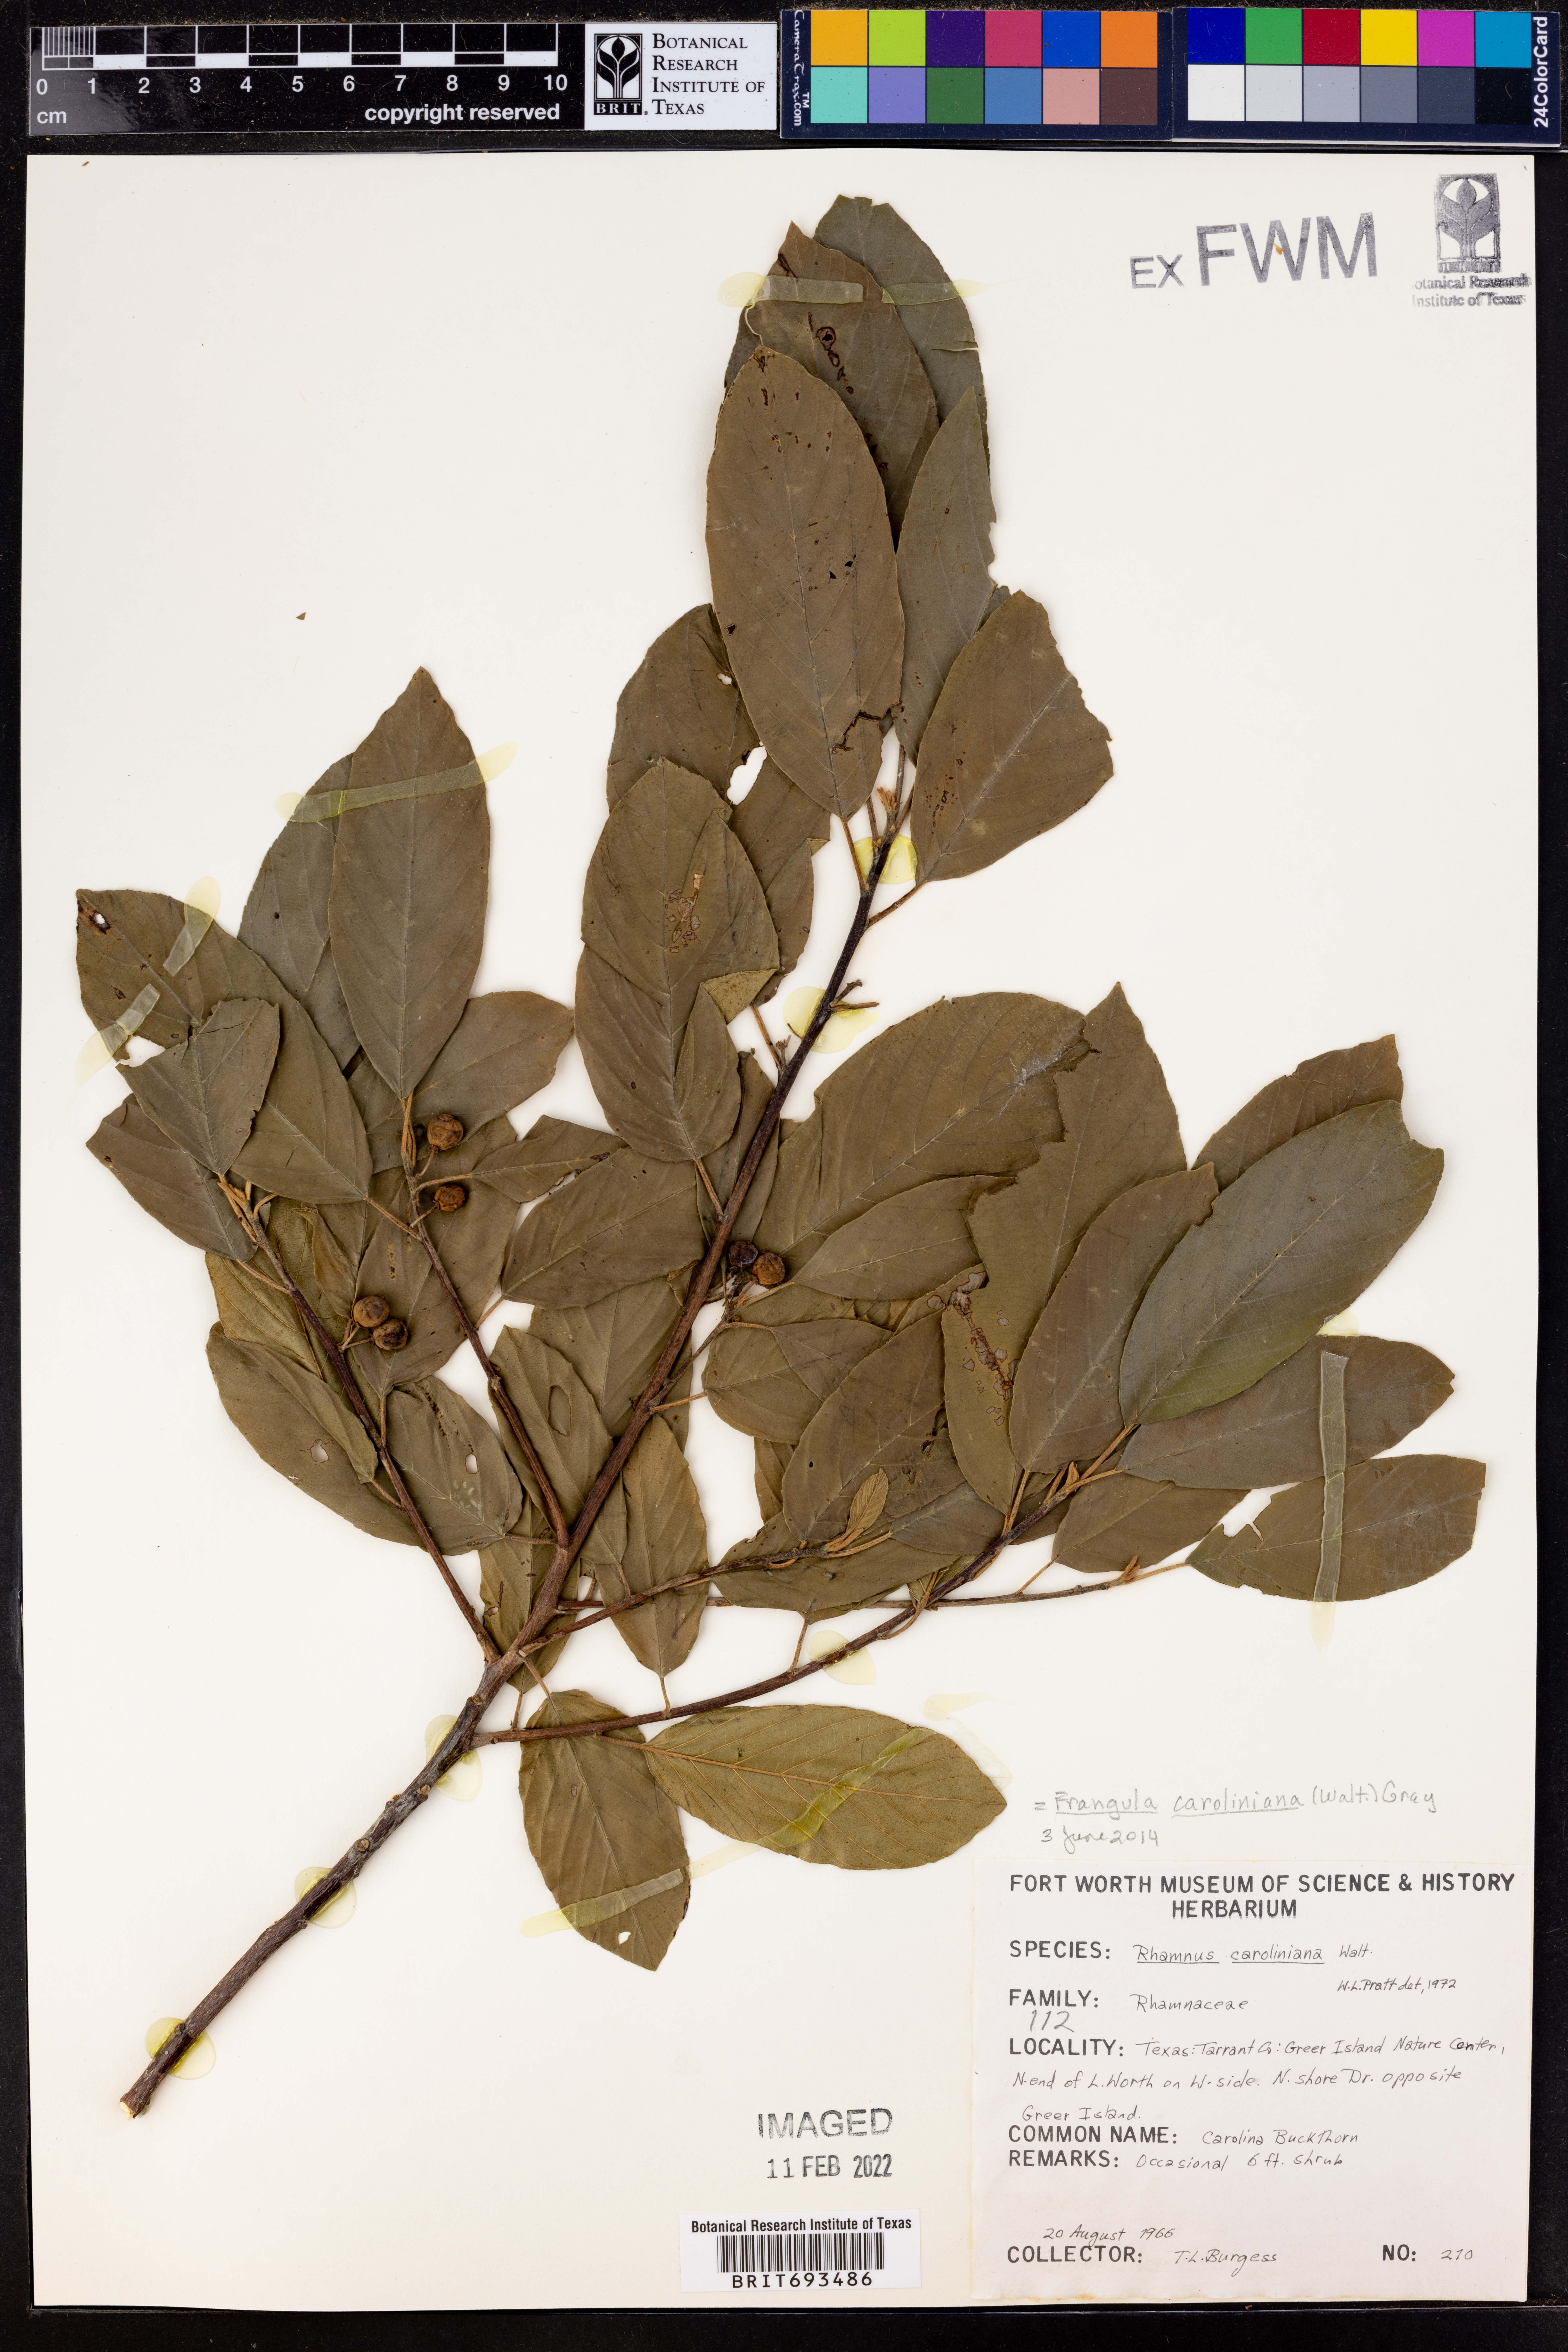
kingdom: Plantae
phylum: Tracheophyta
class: Magnoliopsida
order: Rosales
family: Rhamnaceae
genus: Frangula
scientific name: Frangula caroliniana
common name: Carolina buckthorn
